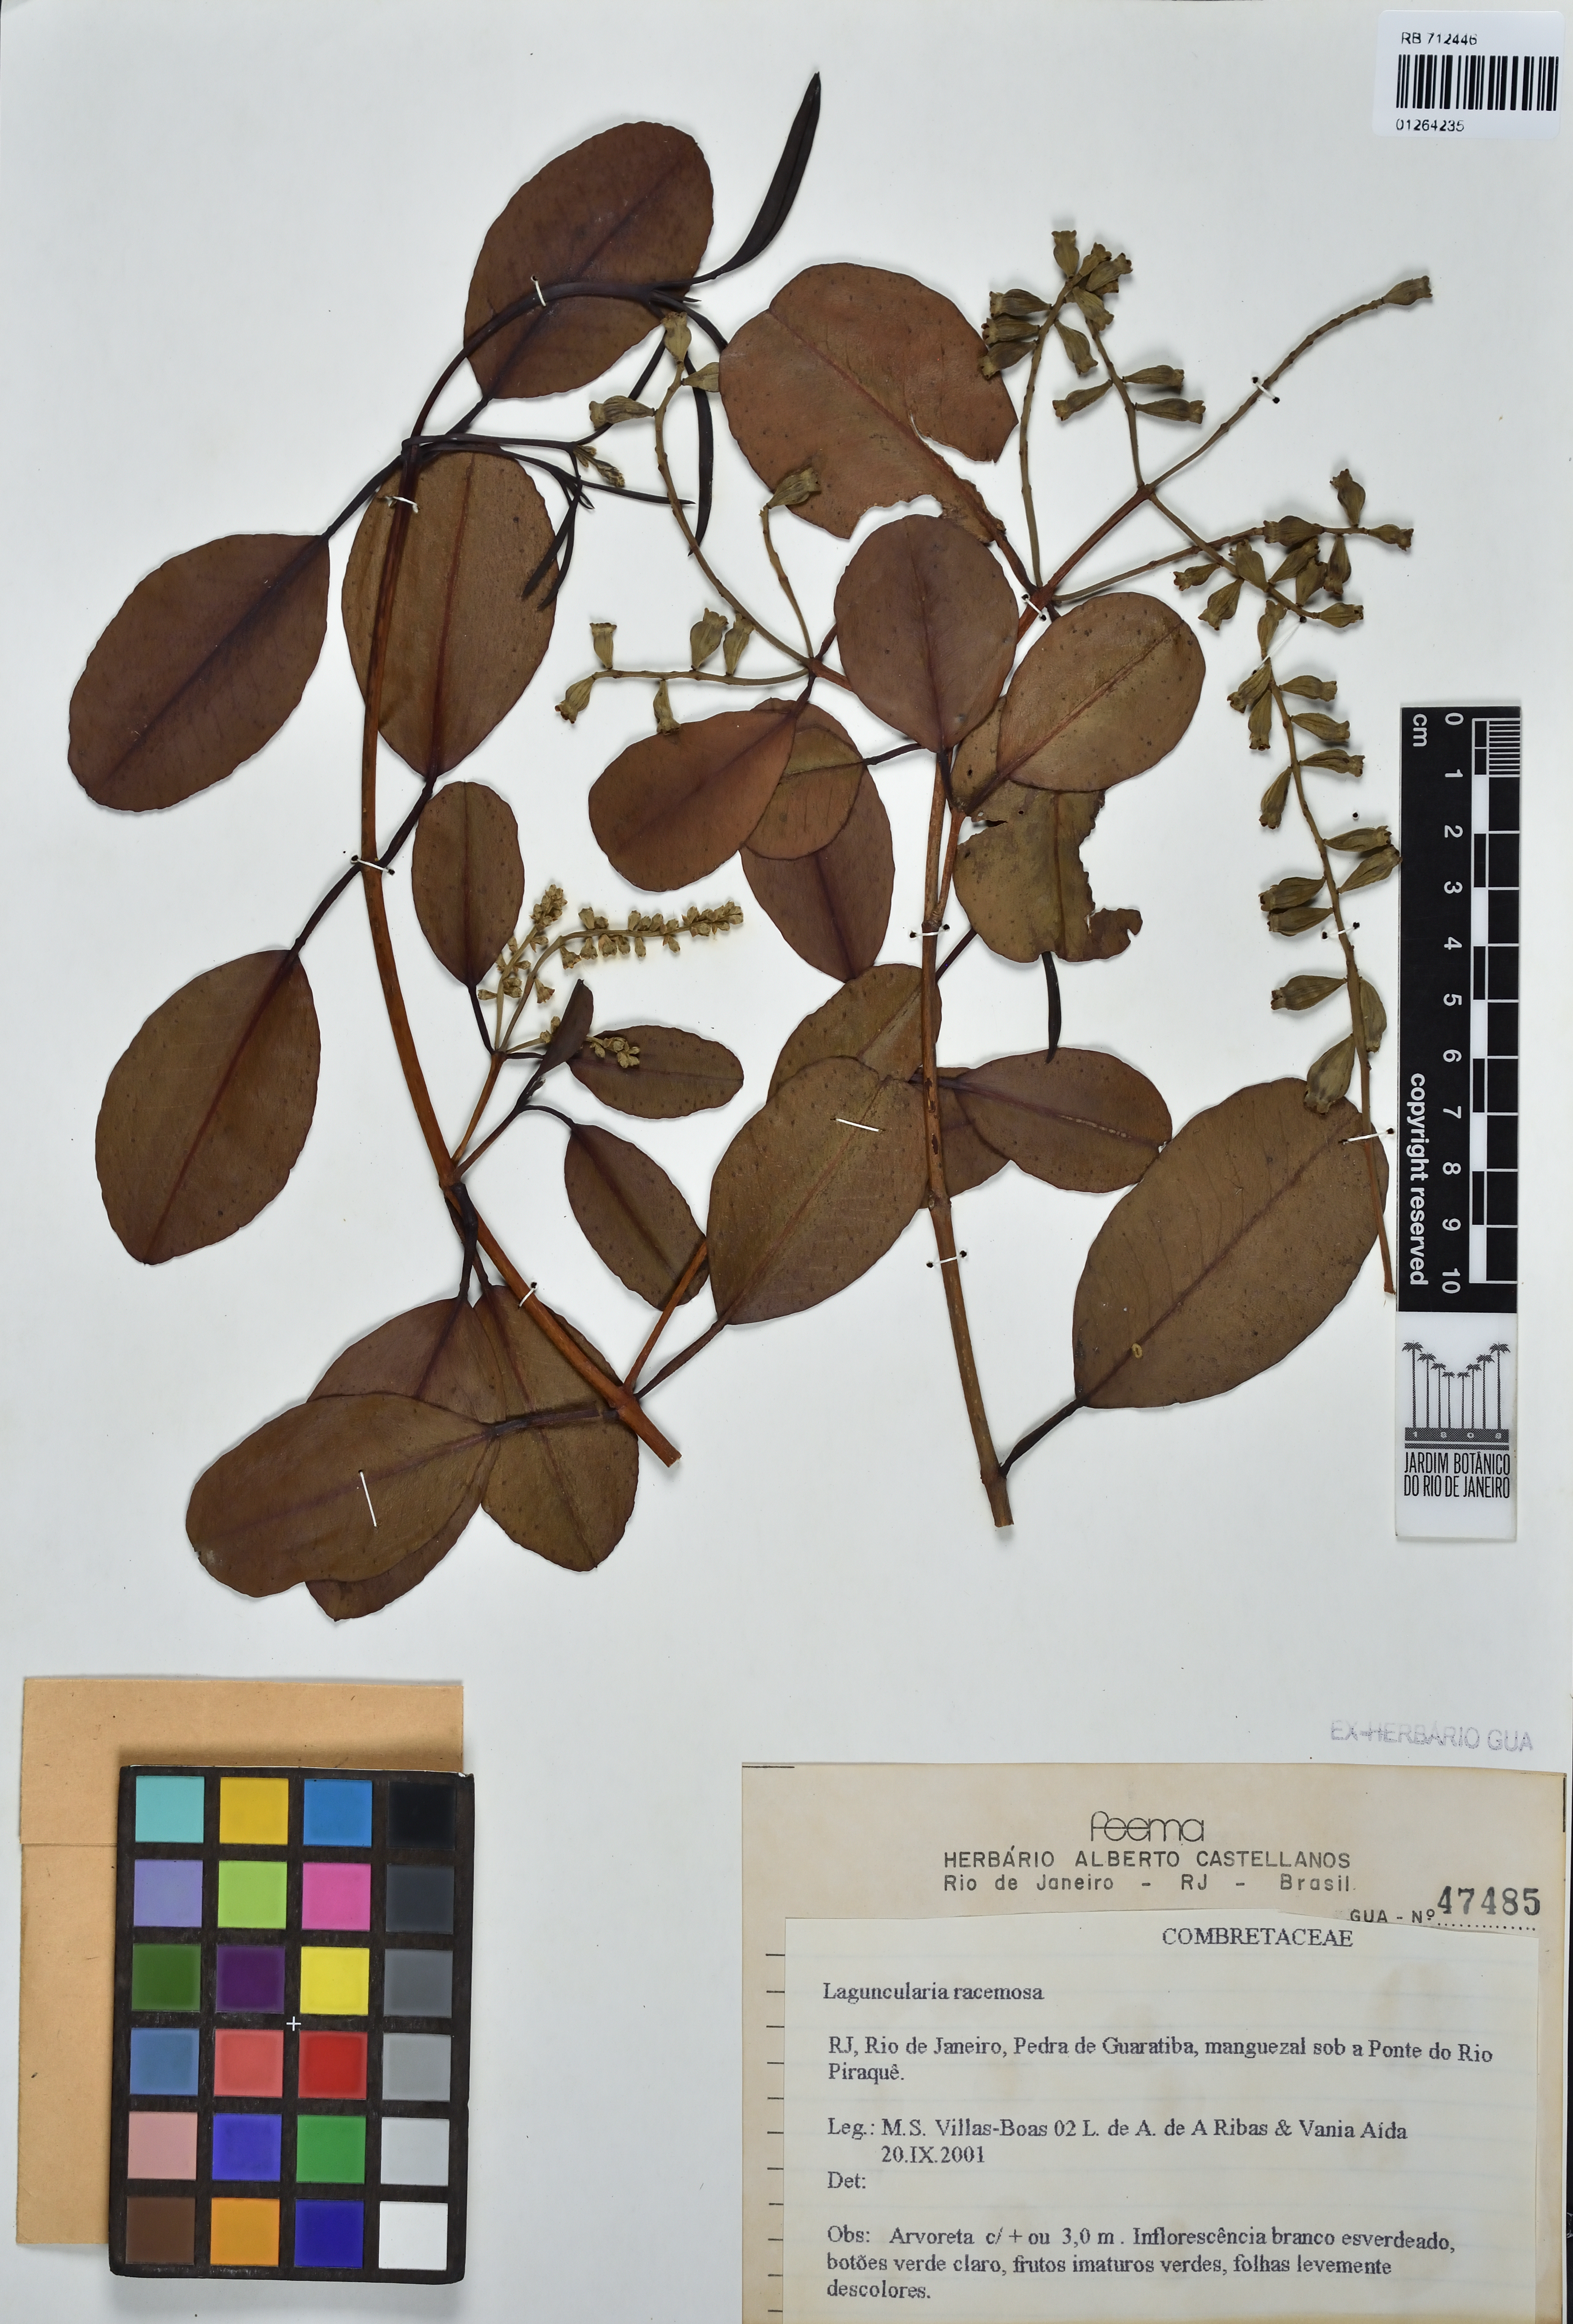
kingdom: Plantae
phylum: Tracheophyta
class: Magnoliopsida
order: Myrtales
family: Combretaceae
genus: Laguncularia
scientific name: Laguncularia racemosa
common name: White mangrove
